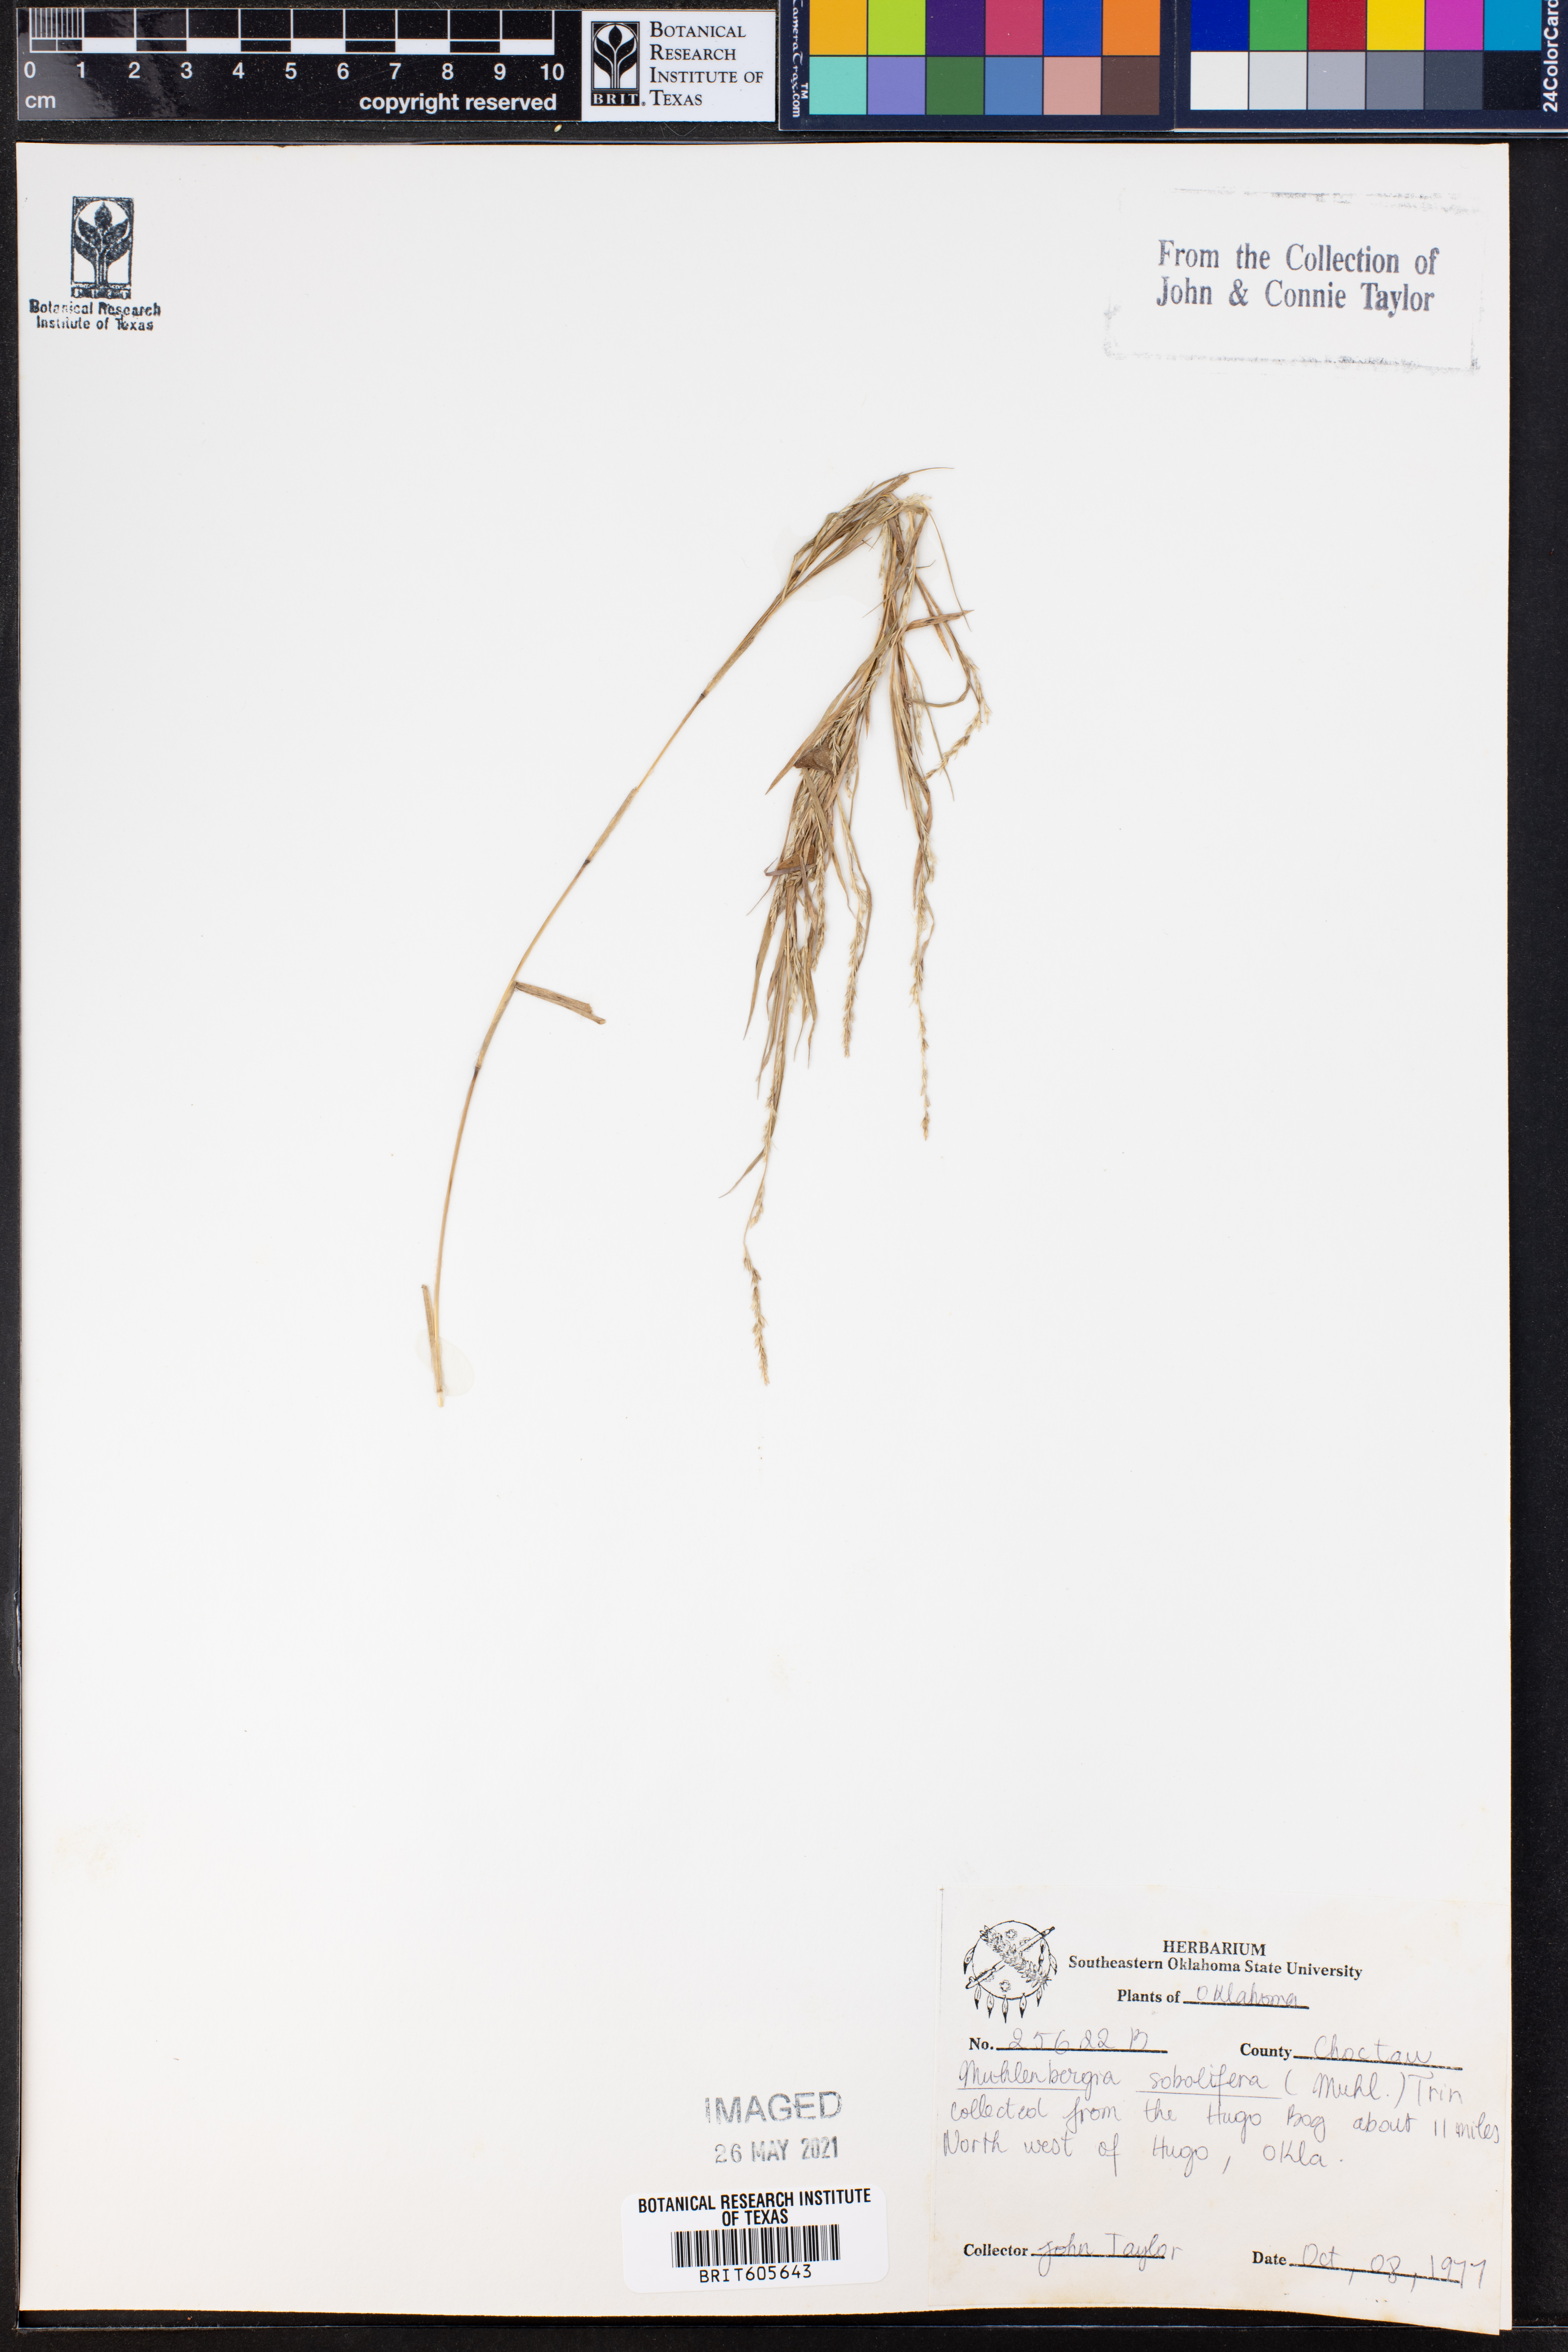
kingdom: Plantae
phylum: Tracheophyta
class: Liliopsida
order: Poales
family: Poaceae
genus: Muhlenbergia
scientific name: Muhlenbergia sobolifera
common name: Creeping muhly
